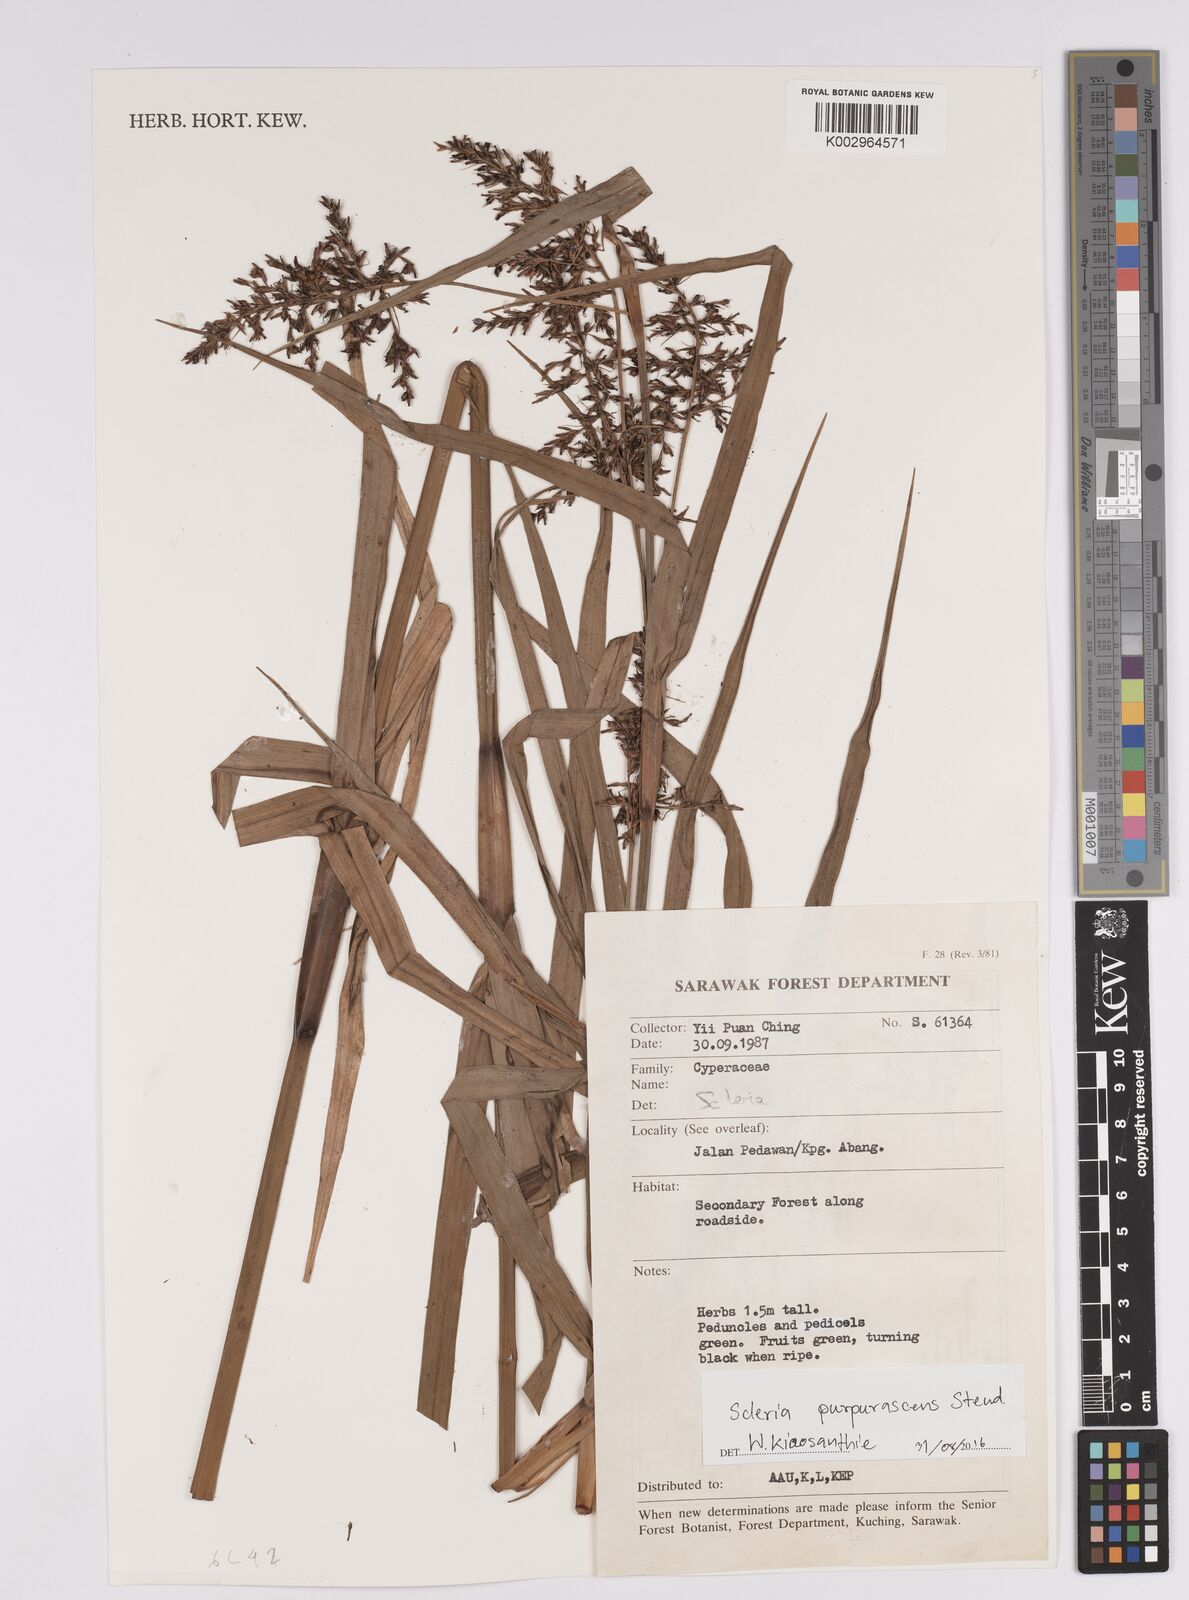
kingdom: Plantae
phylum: Tracheophyta
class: Liliopsida
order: Poales
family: Cyperaceae
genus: Scleria
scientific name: Scleria purpurascens
